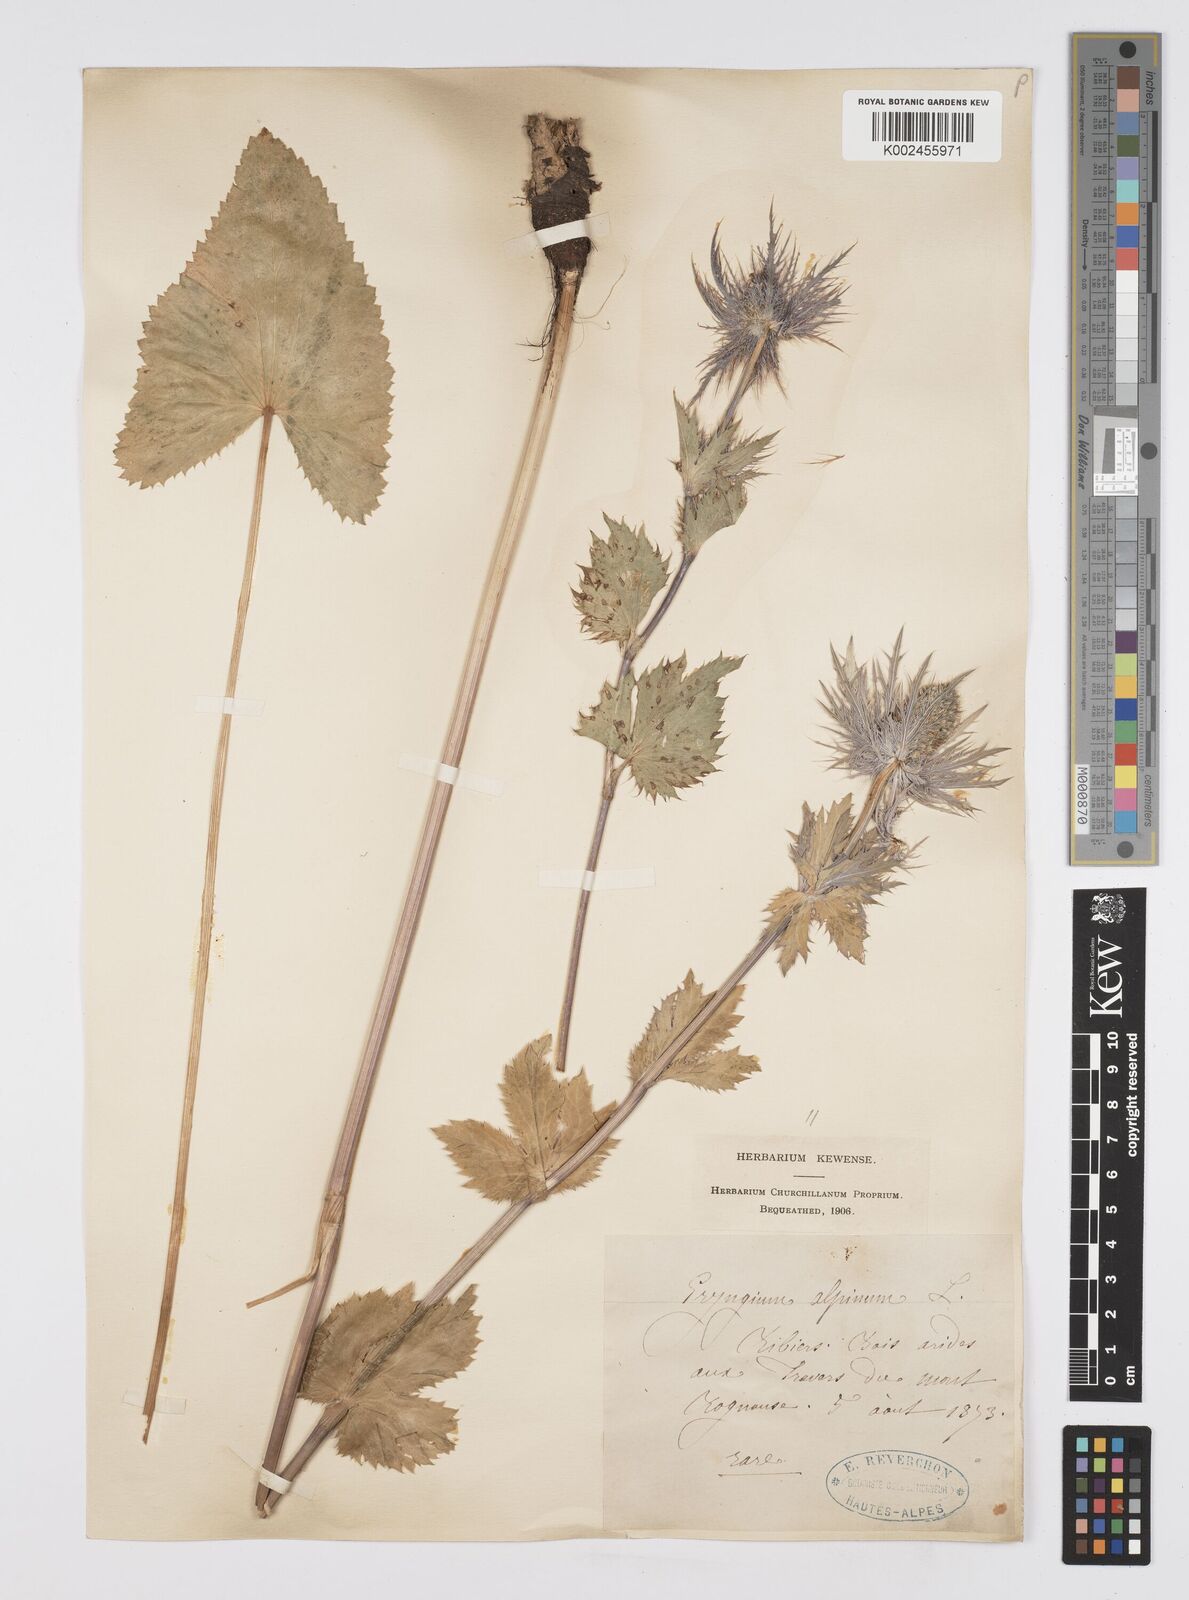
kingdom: Plantae
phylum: Tracheophyta
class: Magnoliopsida
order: Apiales
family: Apiaceae
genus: Eryngium
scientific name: Eryngium alpinum
